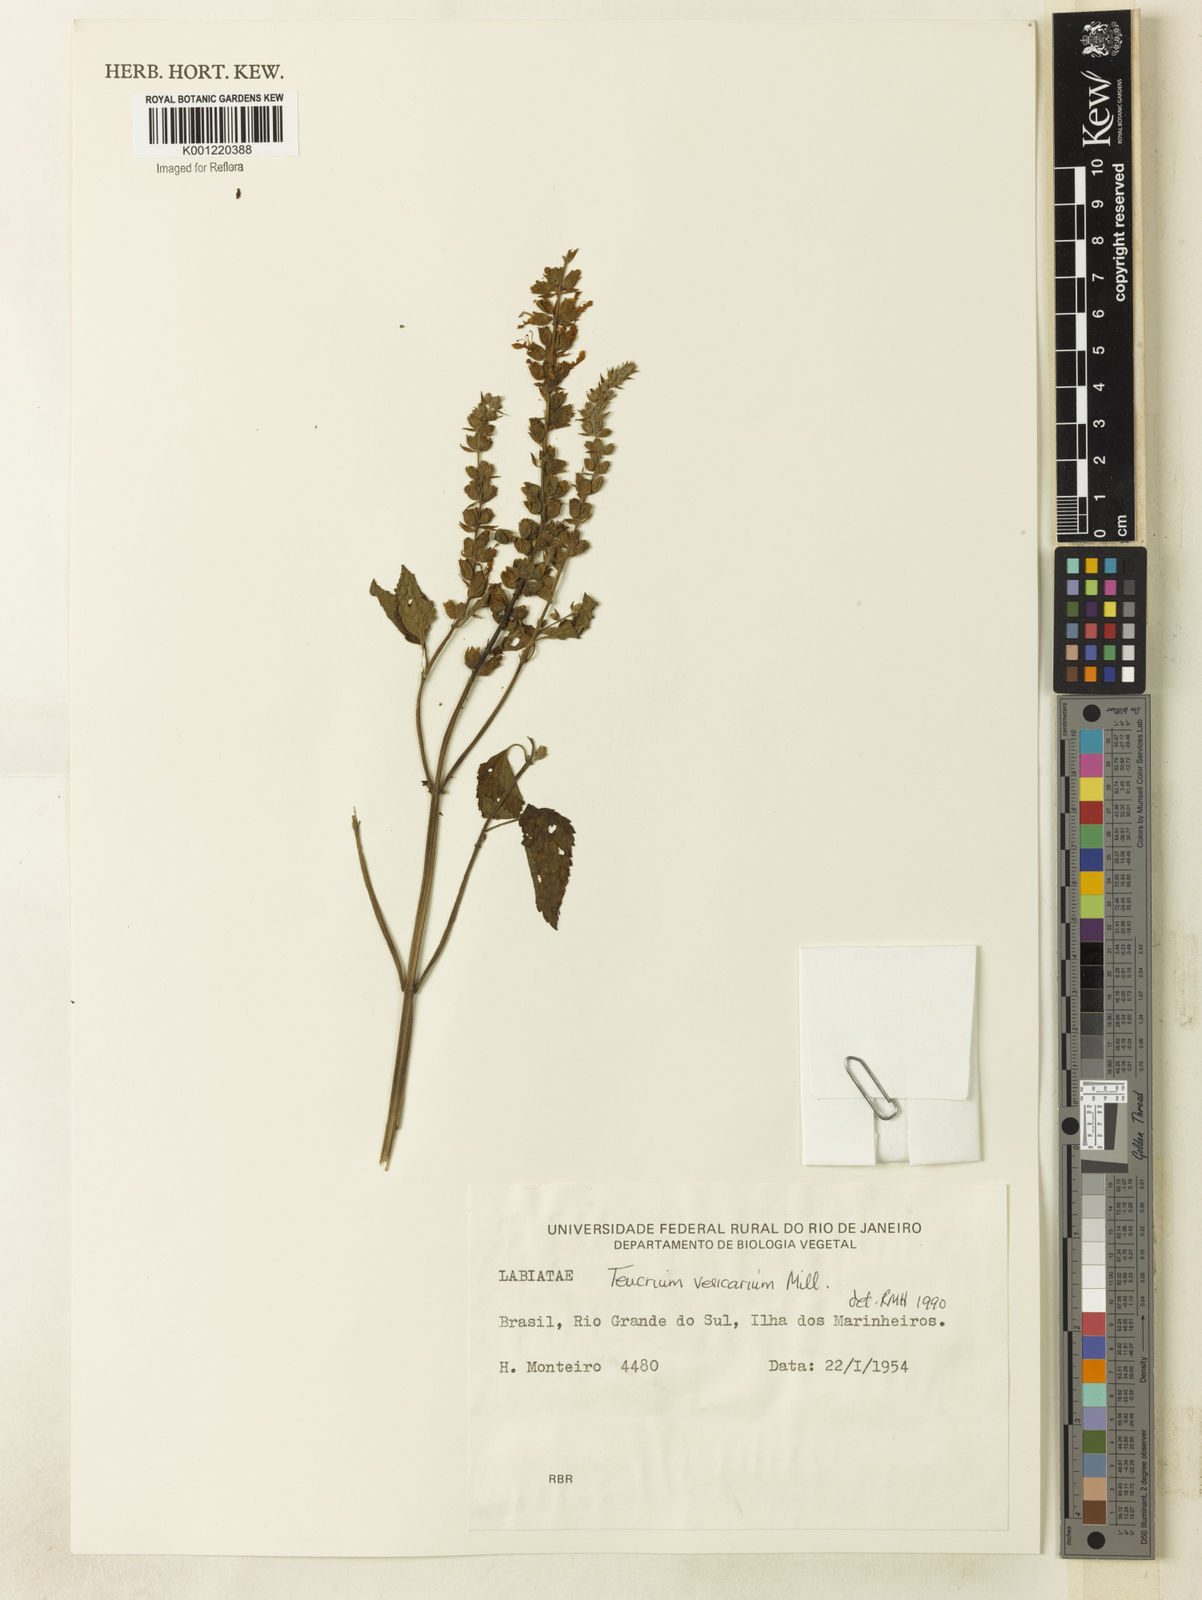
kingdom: Plantae
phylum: Tracheophyta
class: Magnoliopsida
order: Lamiales
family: Lamiaceae
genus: Teucrium
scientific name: Teucrium vesicarium
